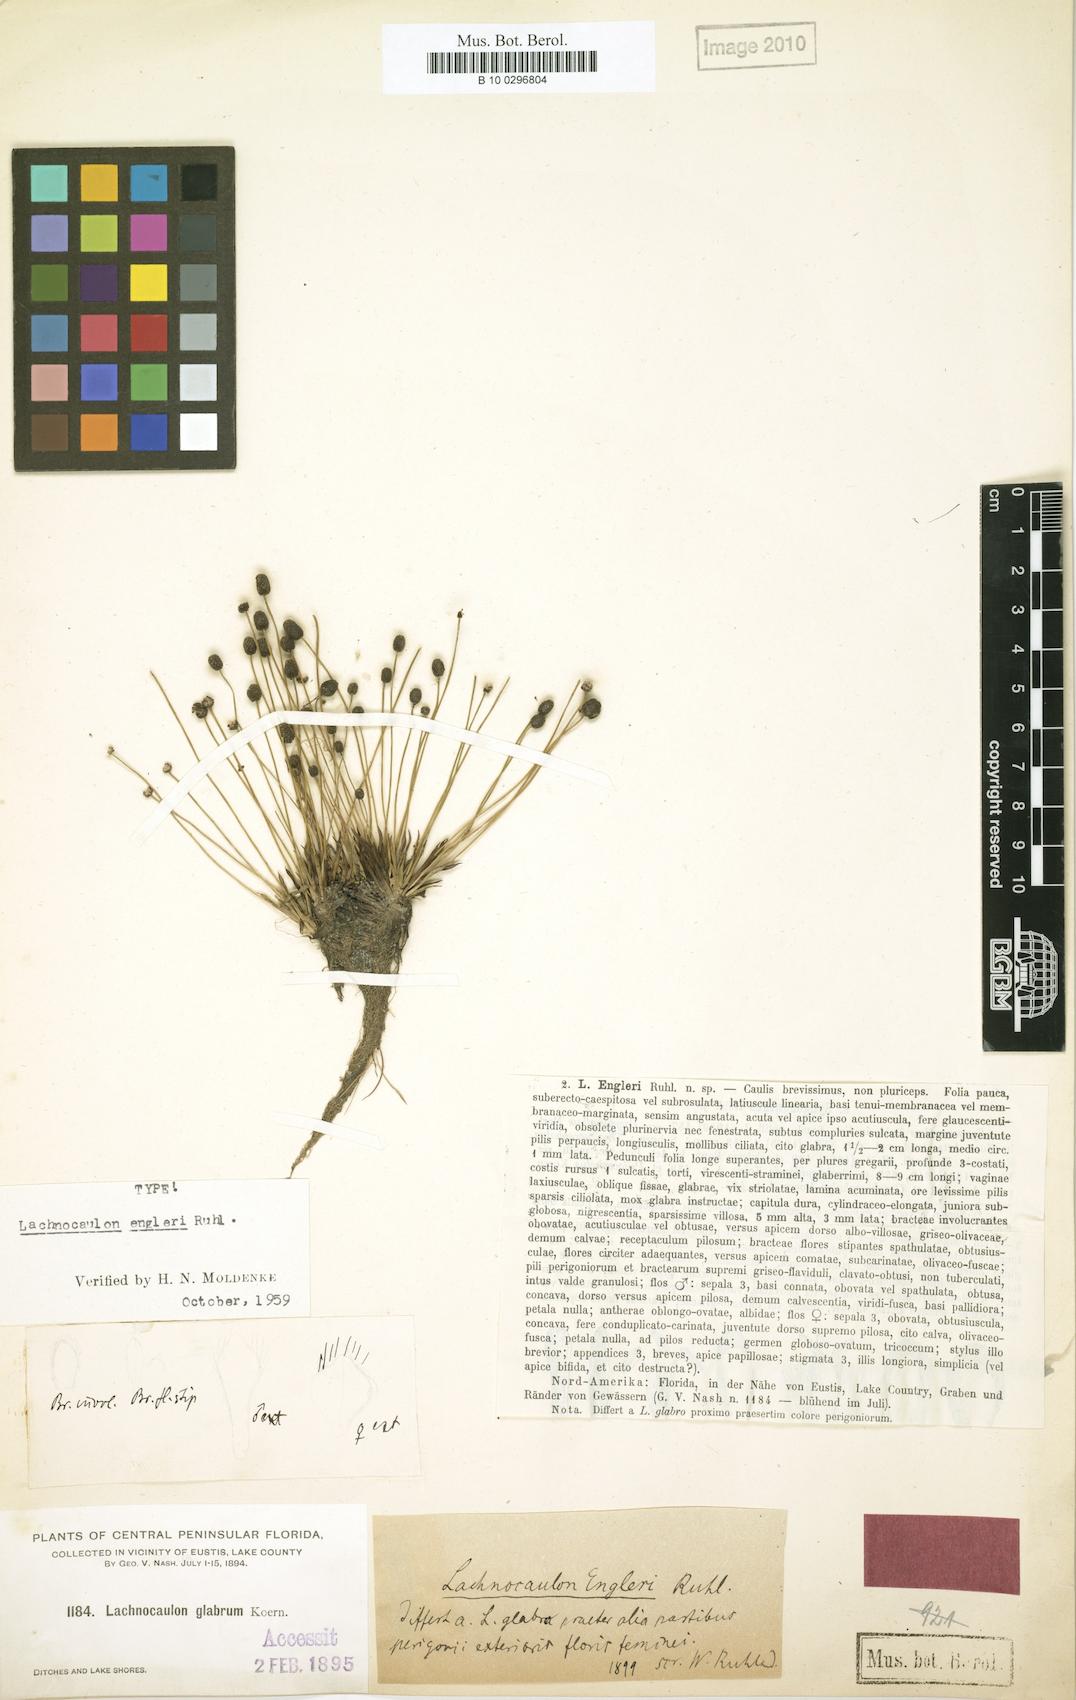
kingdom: Plantae
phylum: Tracheophyta
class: Liliopsida
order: Poales
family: Eriocaulaceae
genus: Paepalanthus
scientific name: Paepalanthus engleri
